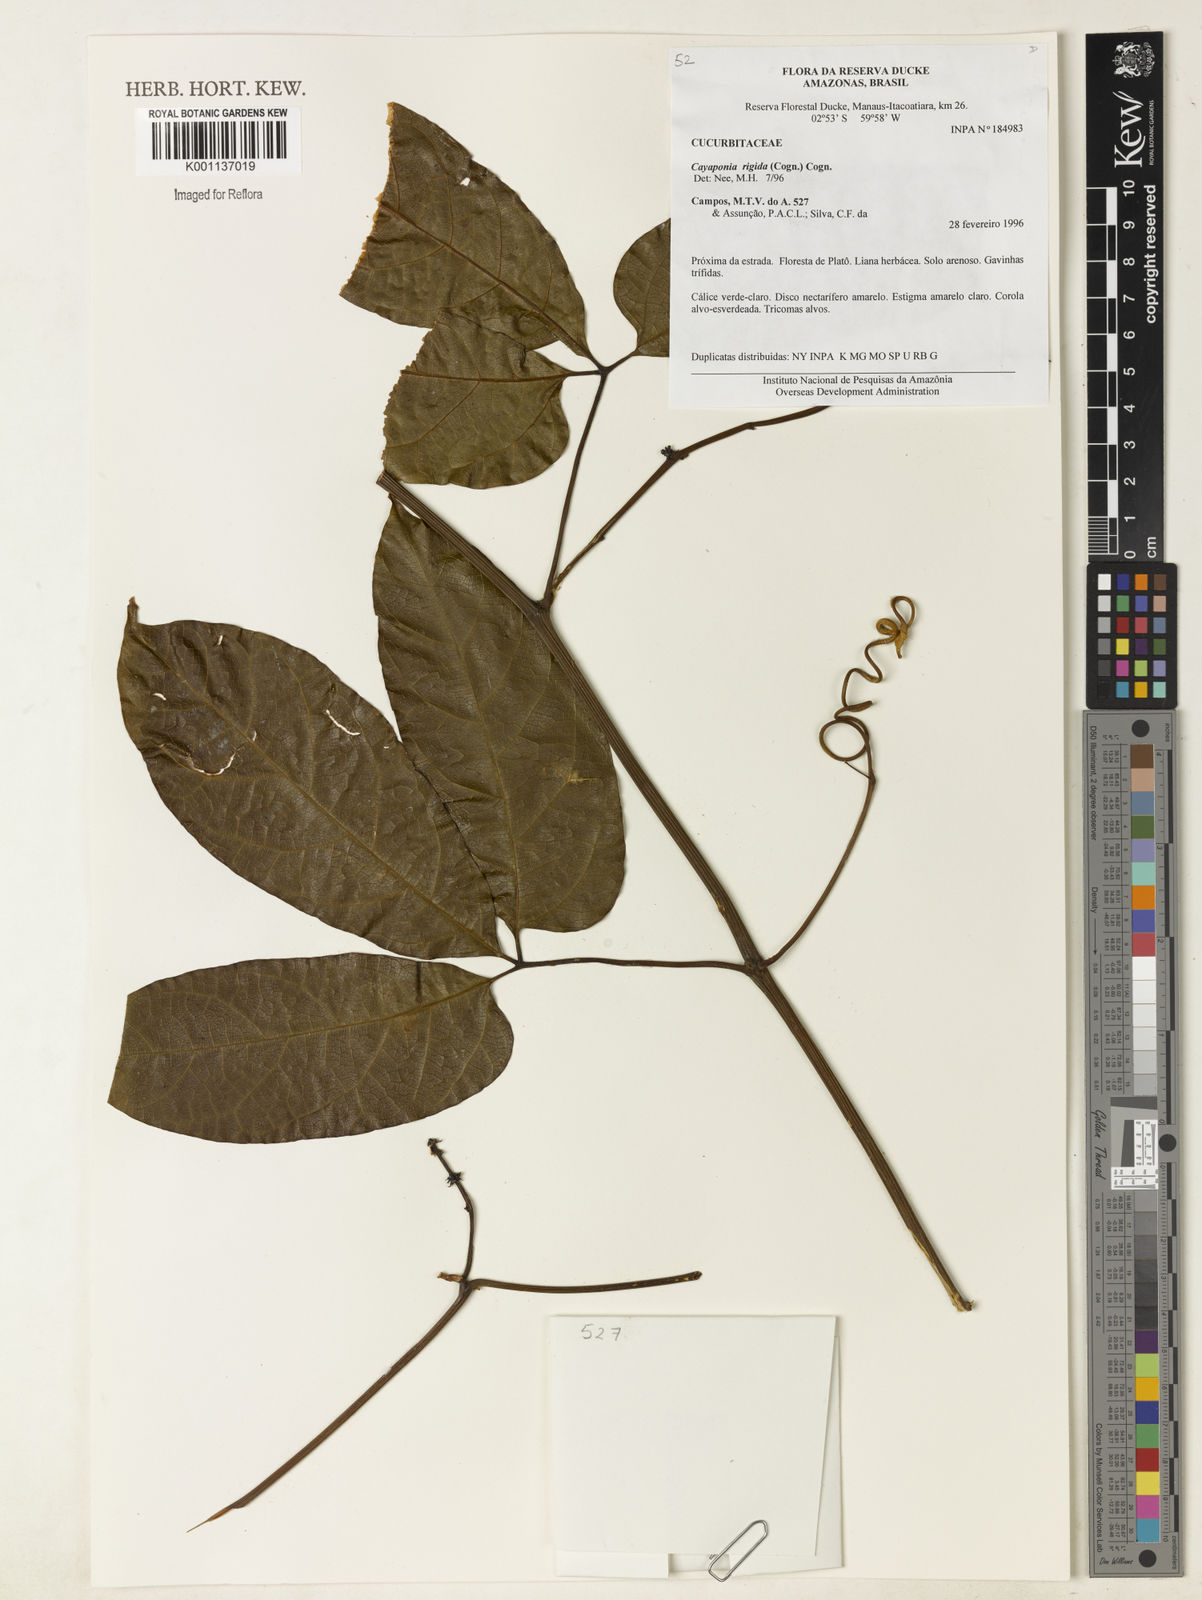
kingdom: Plantae
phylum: Tracheophyta
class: Magnoliopsida
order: Cucurbitales
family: Cucurbitaceae
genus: Cayaponia
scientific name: Cayaponia rigida
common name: Boskomkommer
